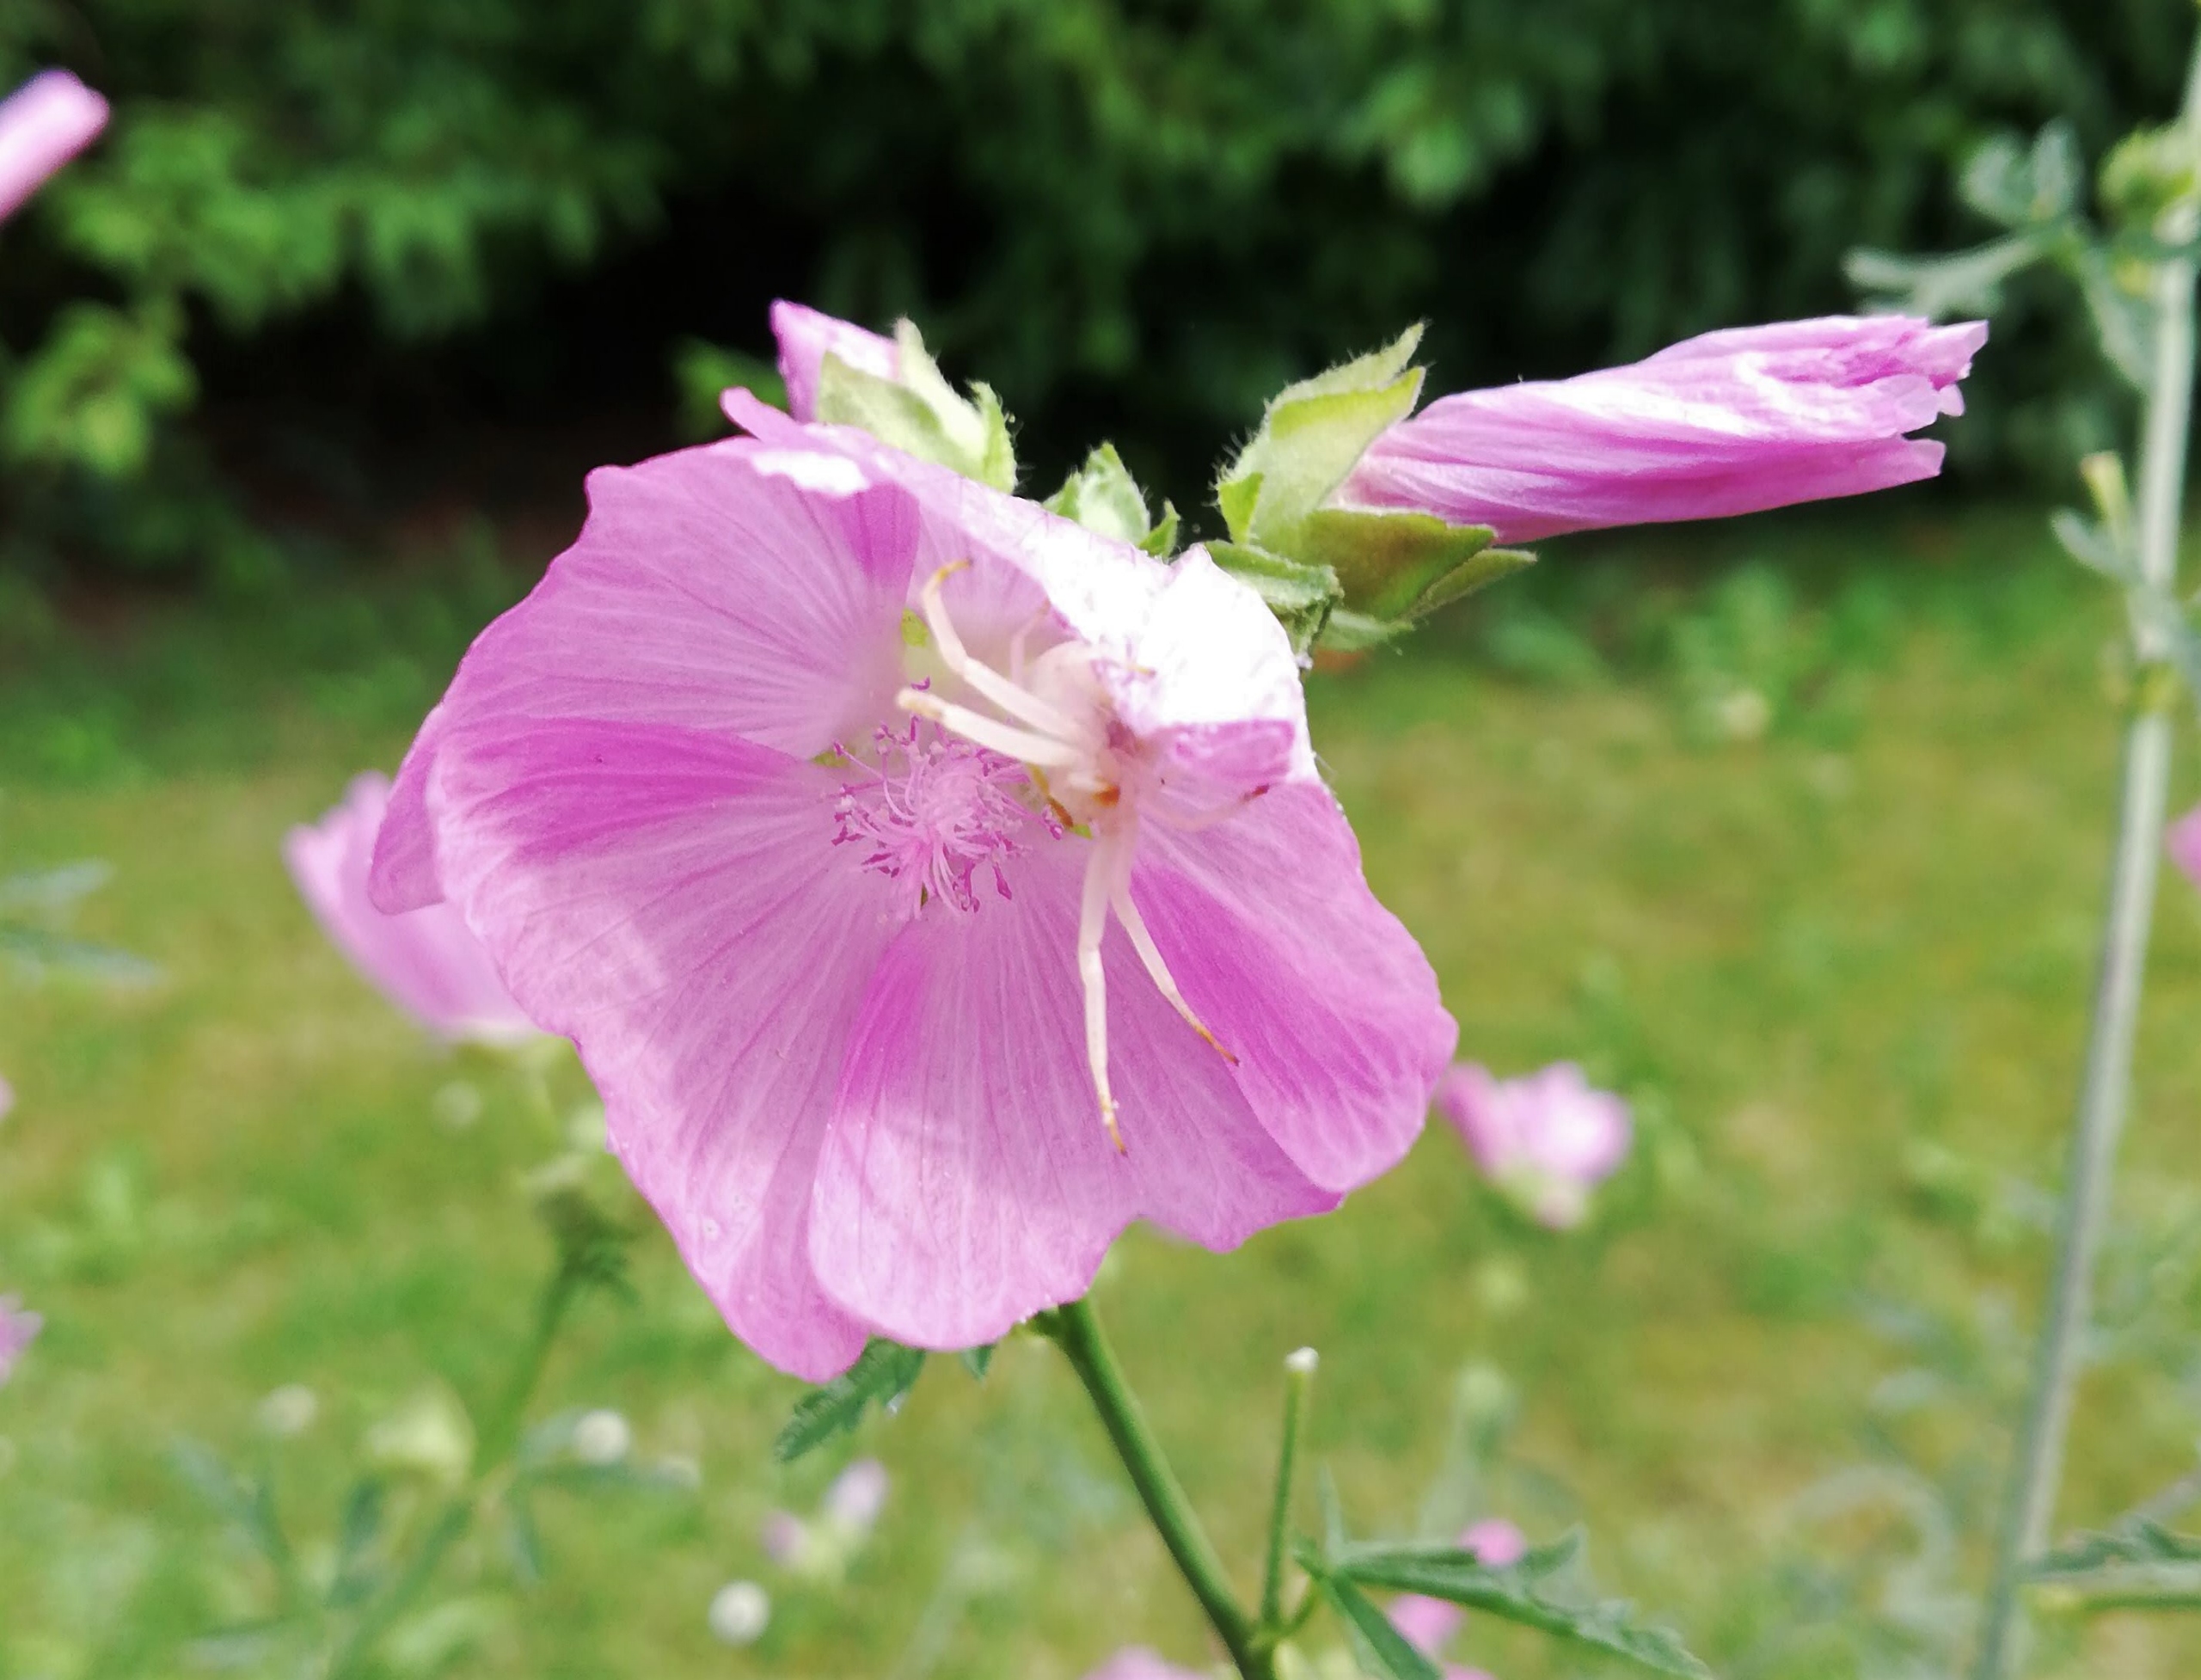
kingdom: Animalia
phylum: Arthropoda
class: Arachnida
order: Araneae
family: Thomisidae
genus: Misumena
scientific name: Misumena vatia
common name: Kamæleonedderkop
